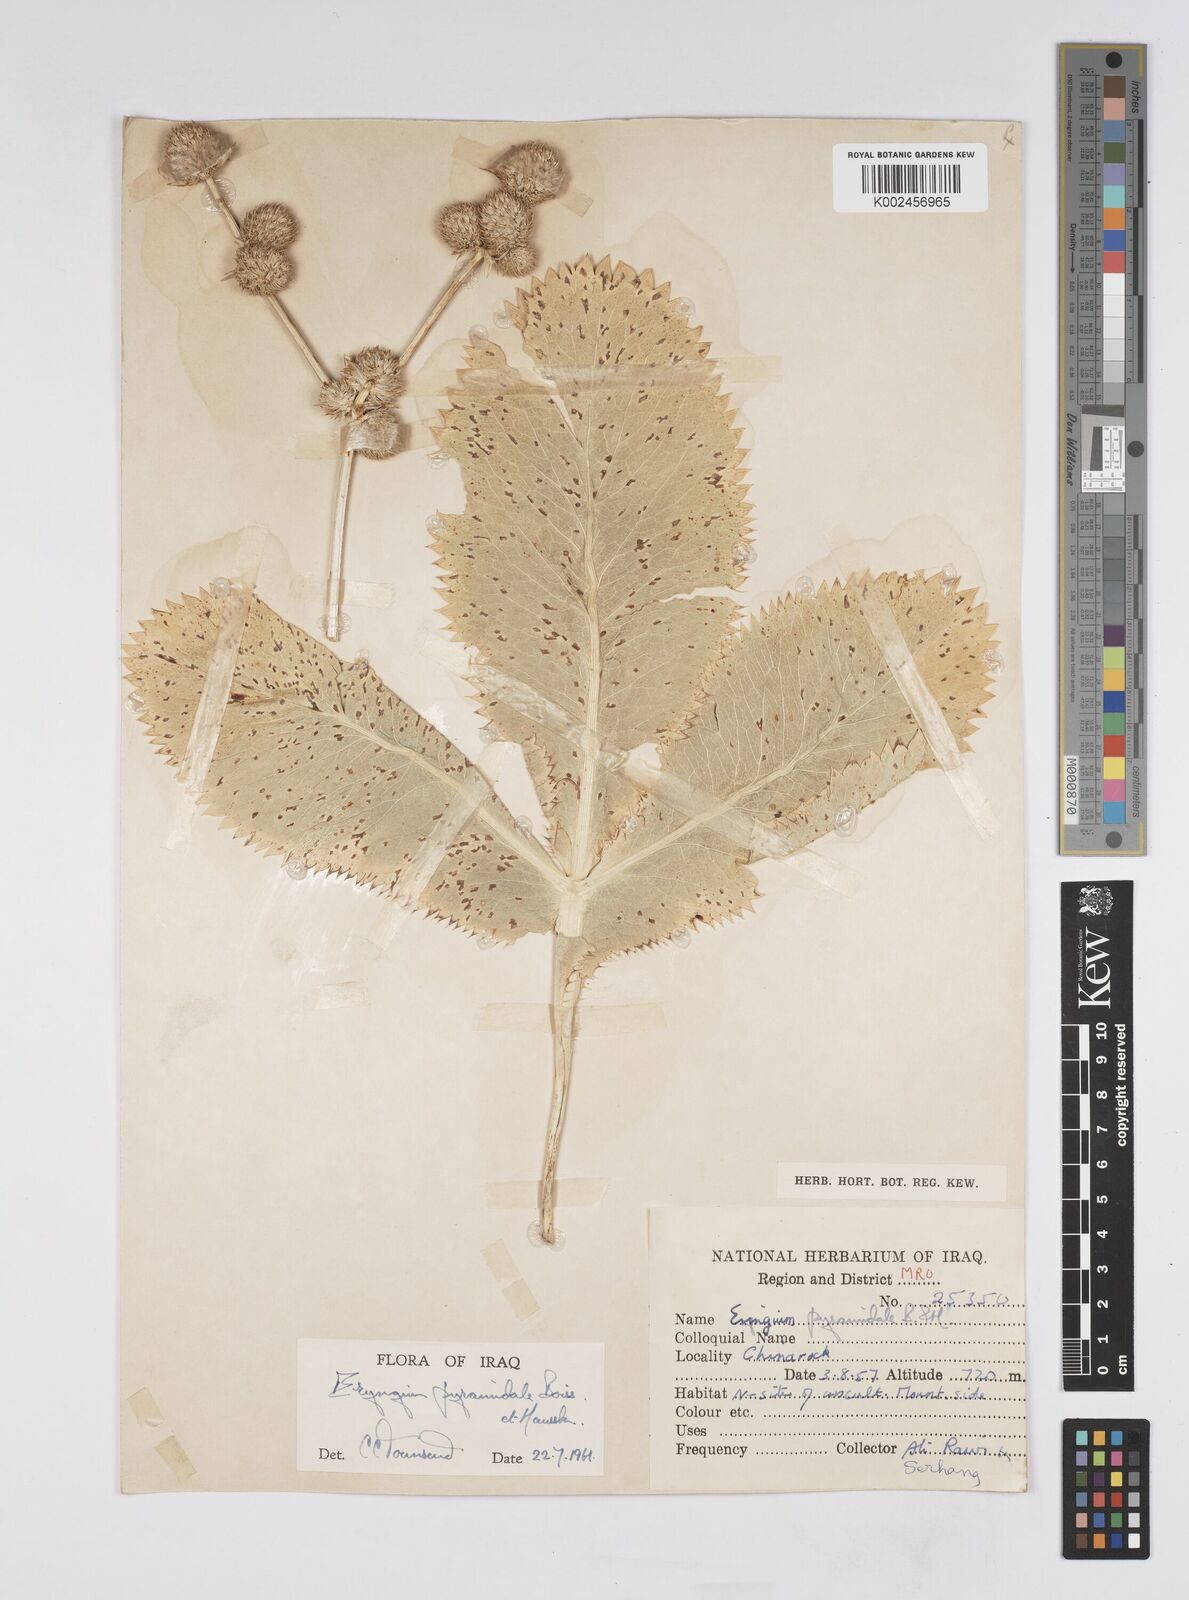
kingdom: Plantae
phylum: Tracheophyta
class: Magnoliopsida
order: Apiales
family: Apiaceae
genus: Eryngium
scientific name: Eryngium pyramidale
